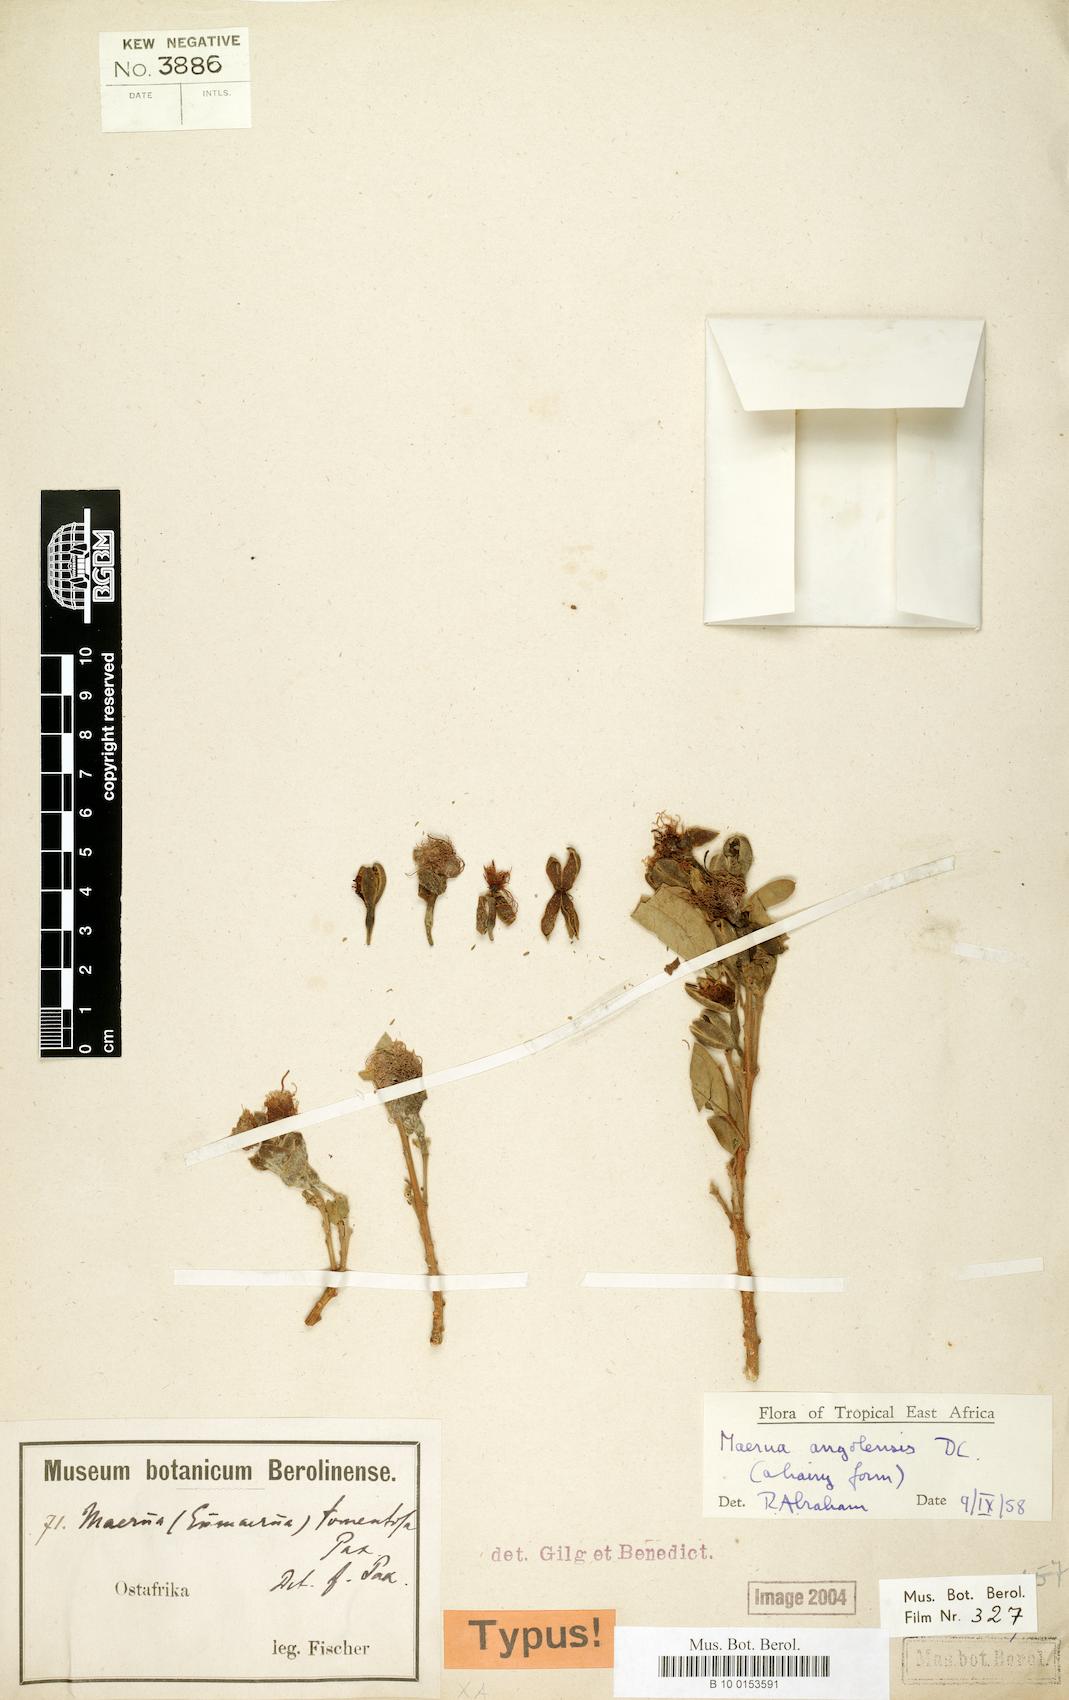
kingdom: Plantae
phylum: Tracheophyta
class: Magnoliopsida
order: Brassicales
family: Capparaceae
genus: Maerua
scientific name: Maerua angolensis
